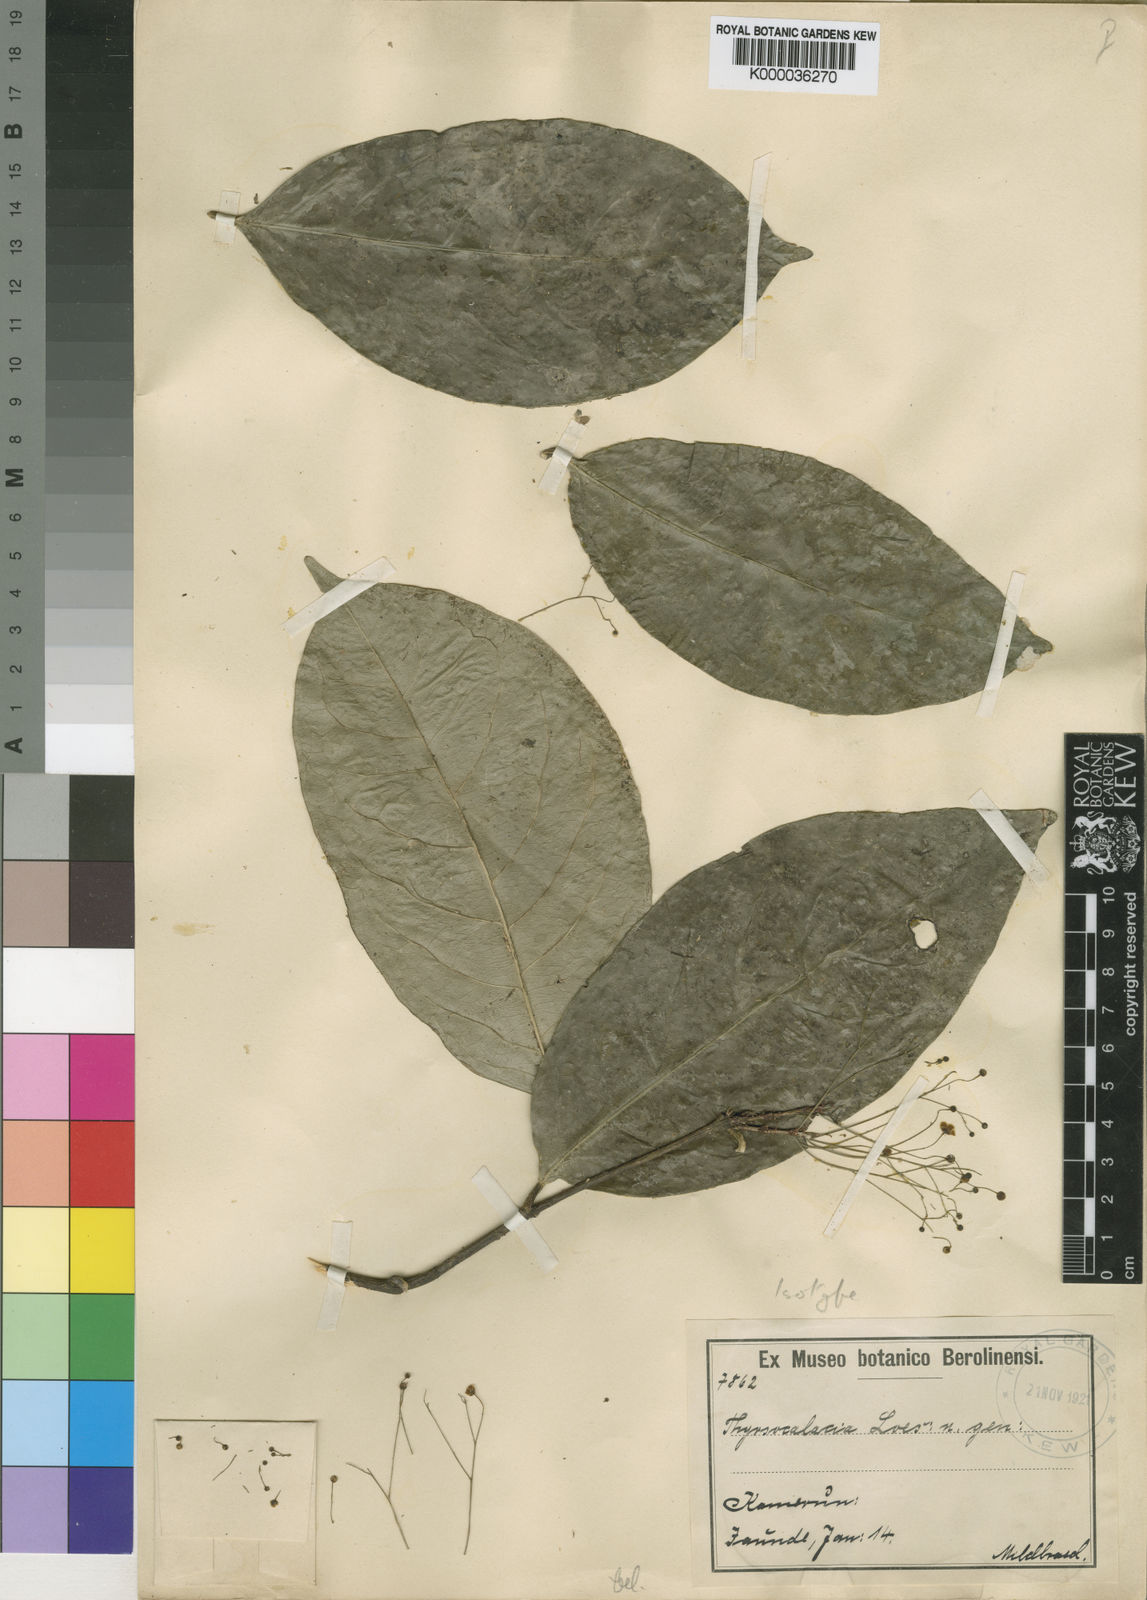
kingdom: Plantae
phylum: Tracheophyta
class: Magnoliopsida
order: Celastrales
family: Celastraceae
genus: Thyrsosalacia
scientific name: Thyrsosalacia nematobrachion
